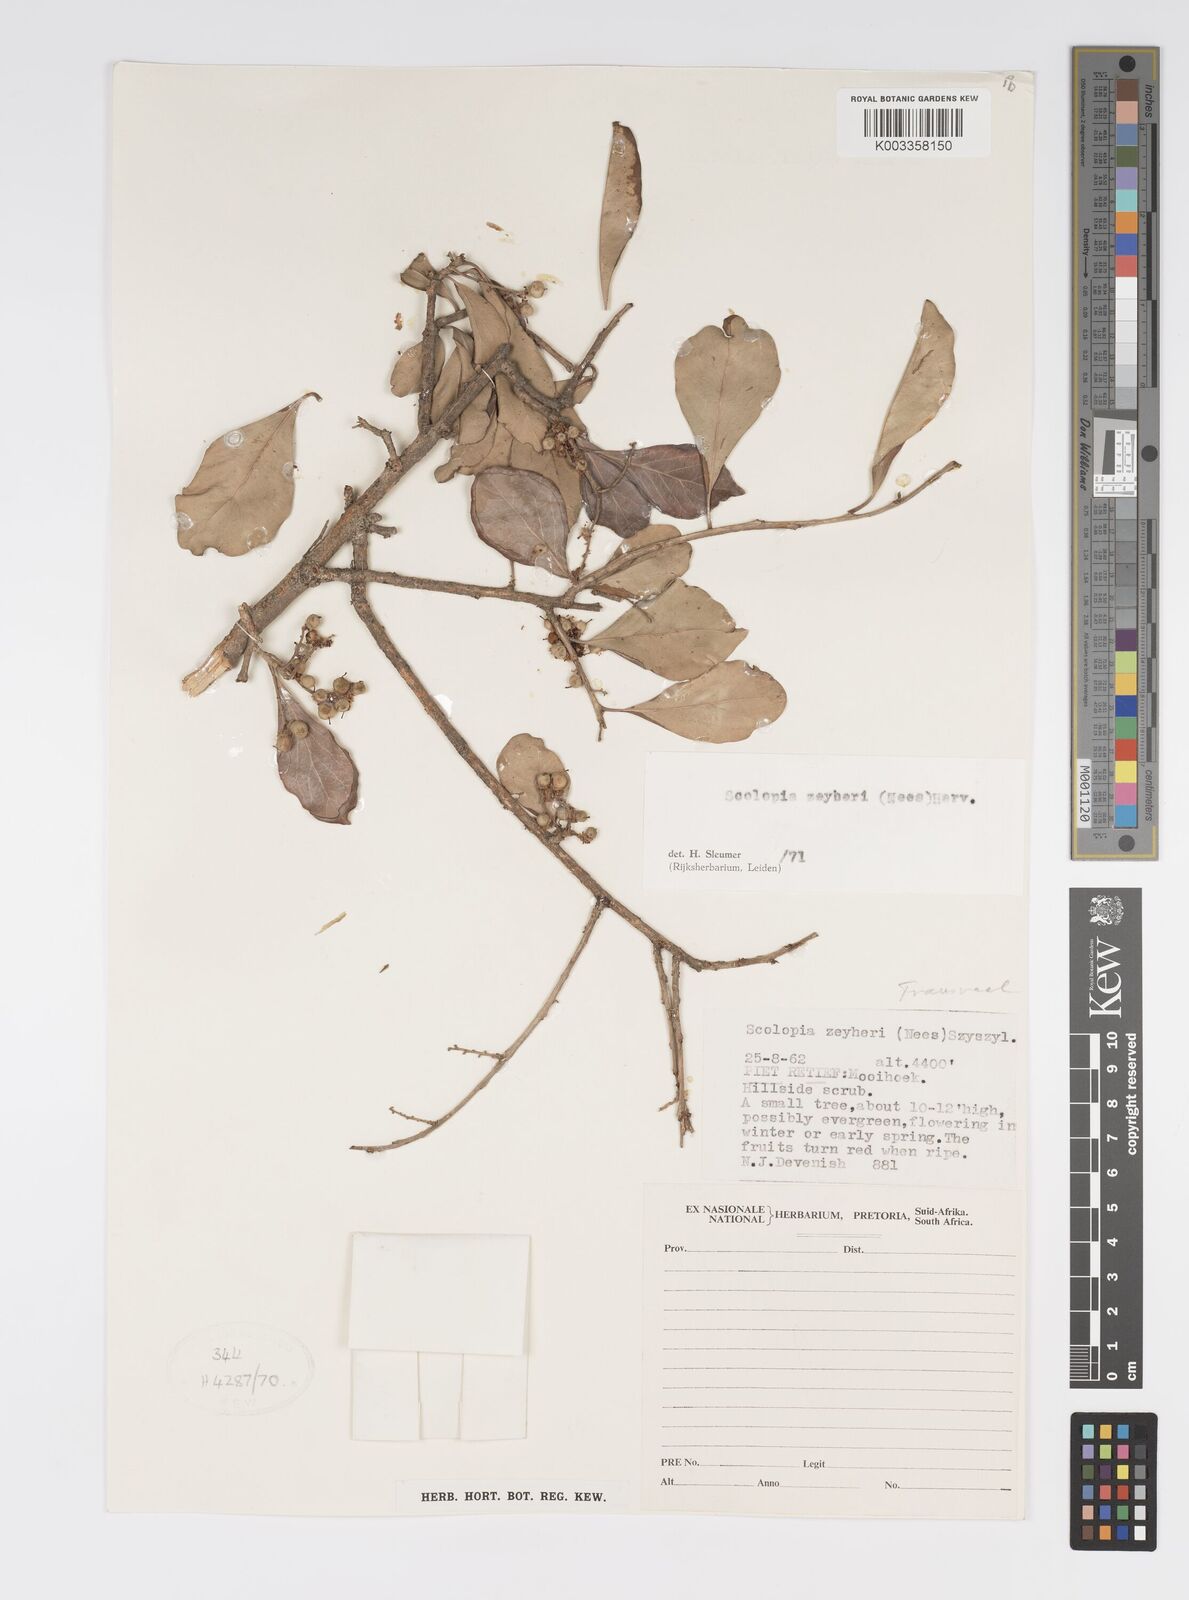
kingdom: Plantae
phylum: Tracheophyta
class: Magnoliopsida
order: Malpighiales
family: Salicaceae
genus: Scolopia
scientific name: Scolopia zeyheri
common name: Thorn pear
